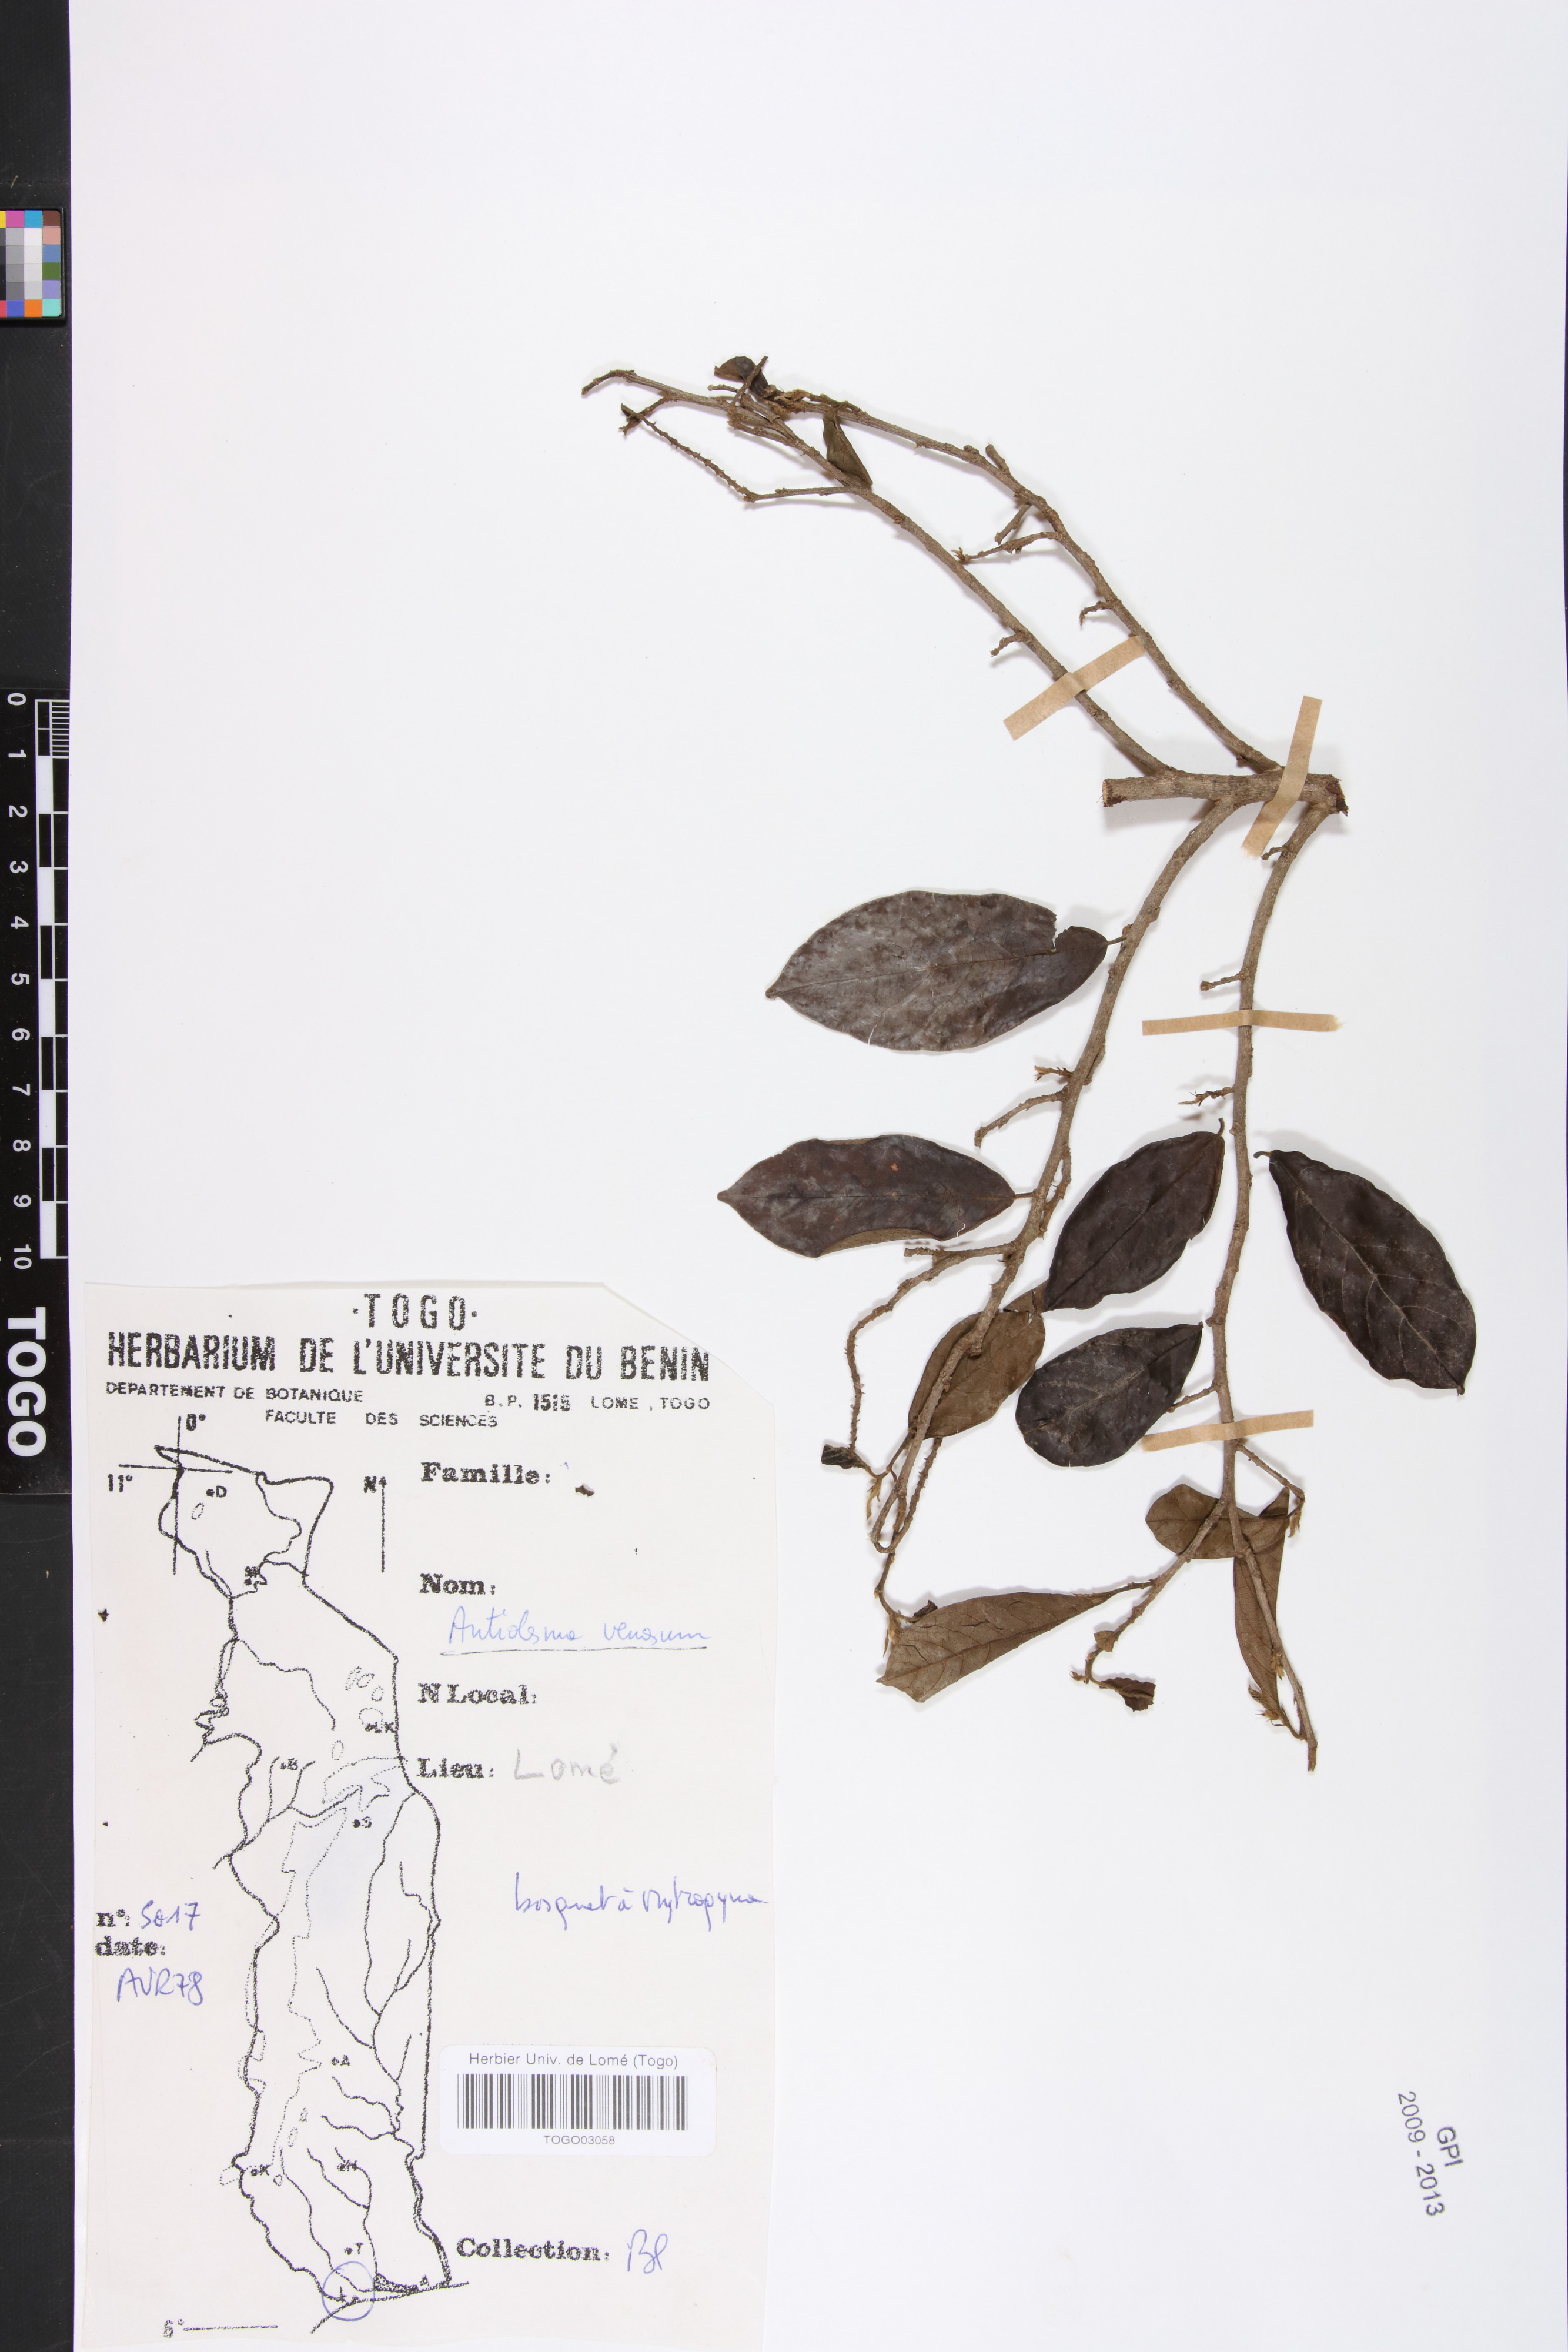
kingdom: Plantae
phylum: Tracheophyta
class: Magnoliopsida
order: Malpighiales
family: Phyllanthaceae
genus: Antidesma
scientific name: Antidesma venosum
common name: Tassel-berry
